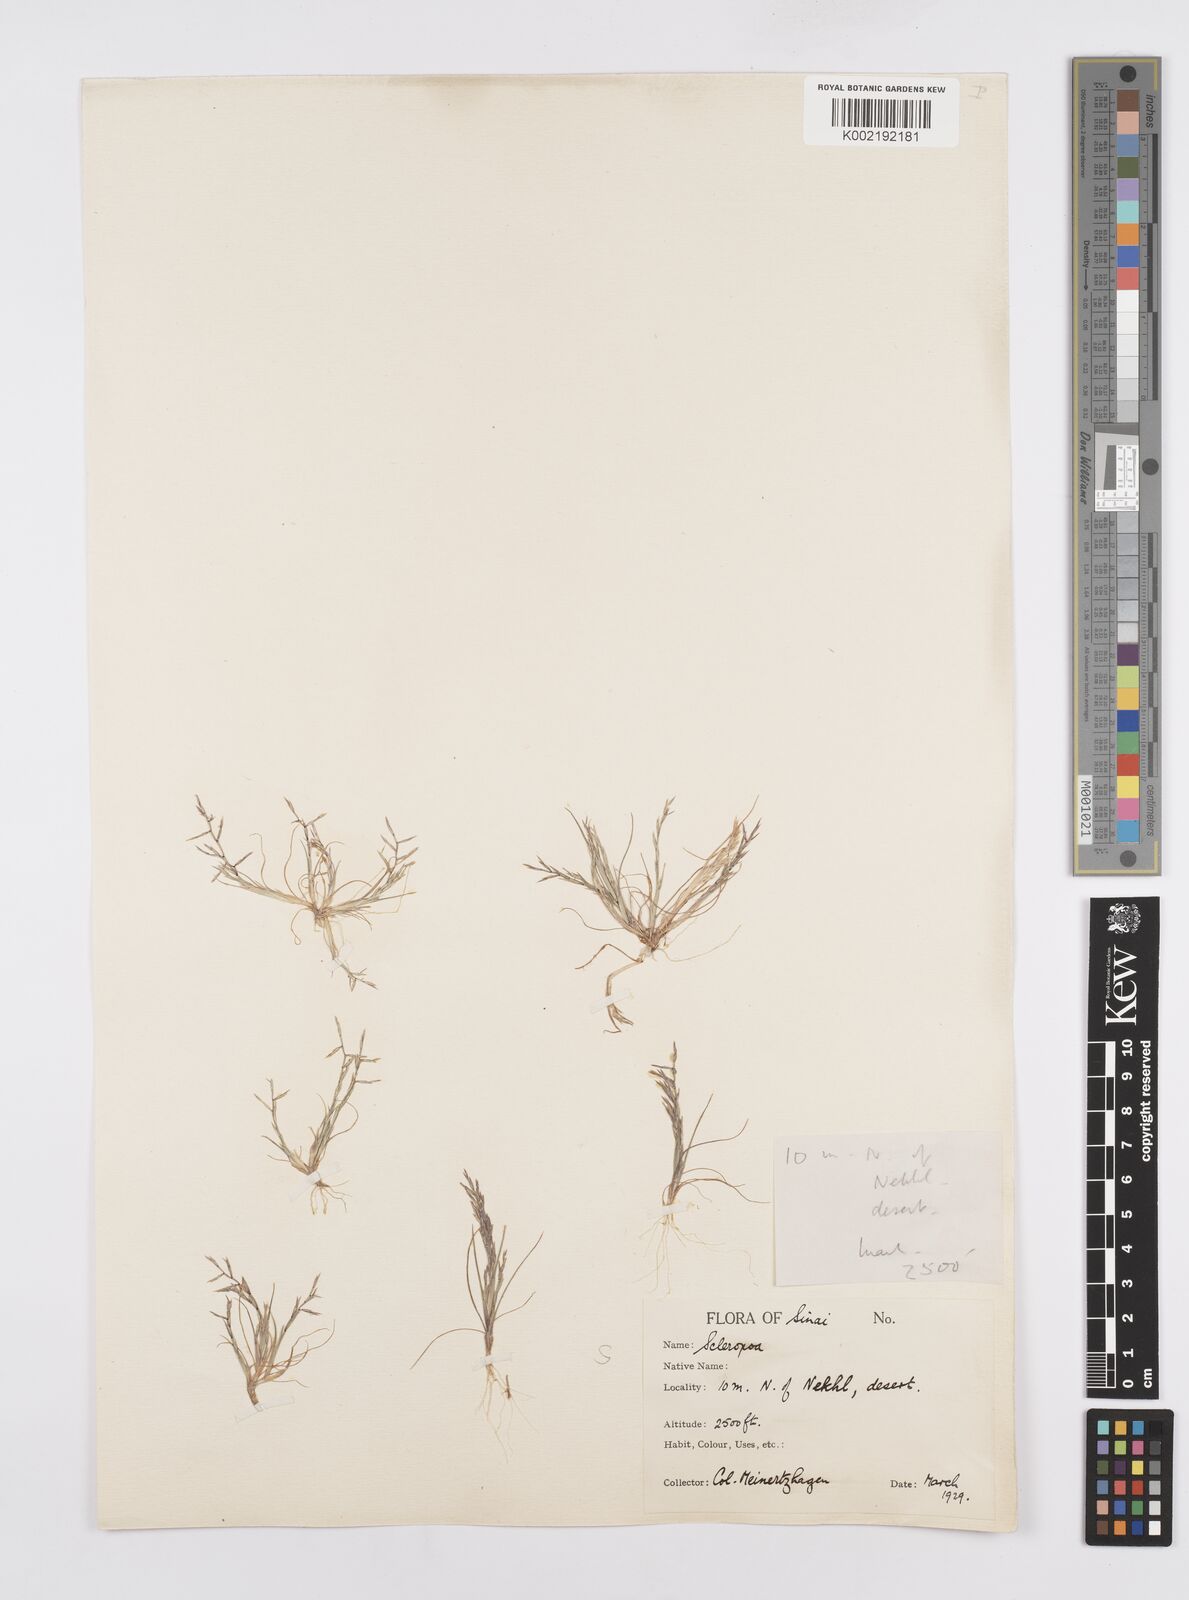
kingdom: Plantae
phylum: Tracheophyta
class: Liliopsida
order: Poales
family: Poaceae
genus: Cutandia
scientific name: Cutandia dichotoma
